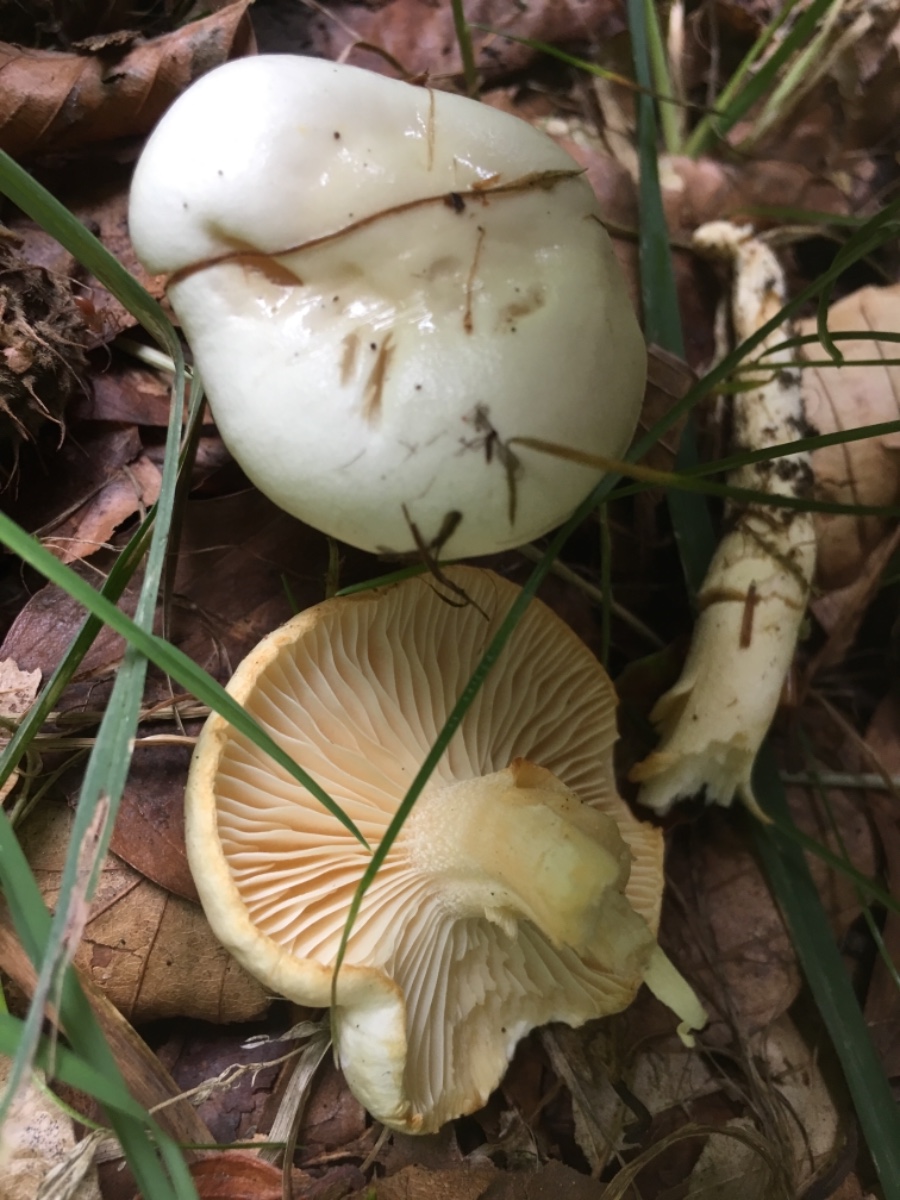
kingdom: Fungi
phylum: Basidiomycota
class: Agaricomycetes
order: Agaricales
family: Hygrophoraceae
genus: Hygrophorus
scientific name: Hygrophorus eburneus
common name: elfenbens-sneglehat
